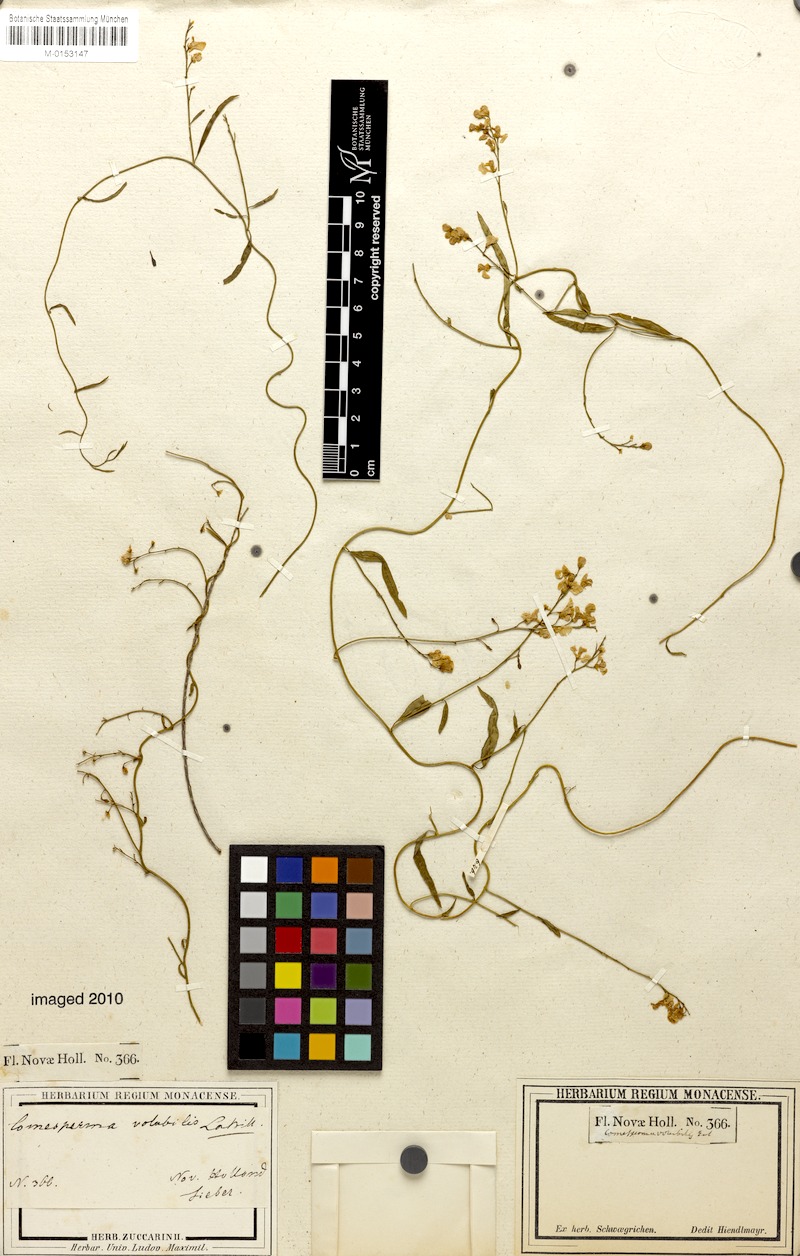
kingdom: Plantae
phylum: Tracheophyta
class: Magnoliopsida
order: Fabales
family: Polygalaceae
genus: Comesperma
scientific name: Comesperma volubile
